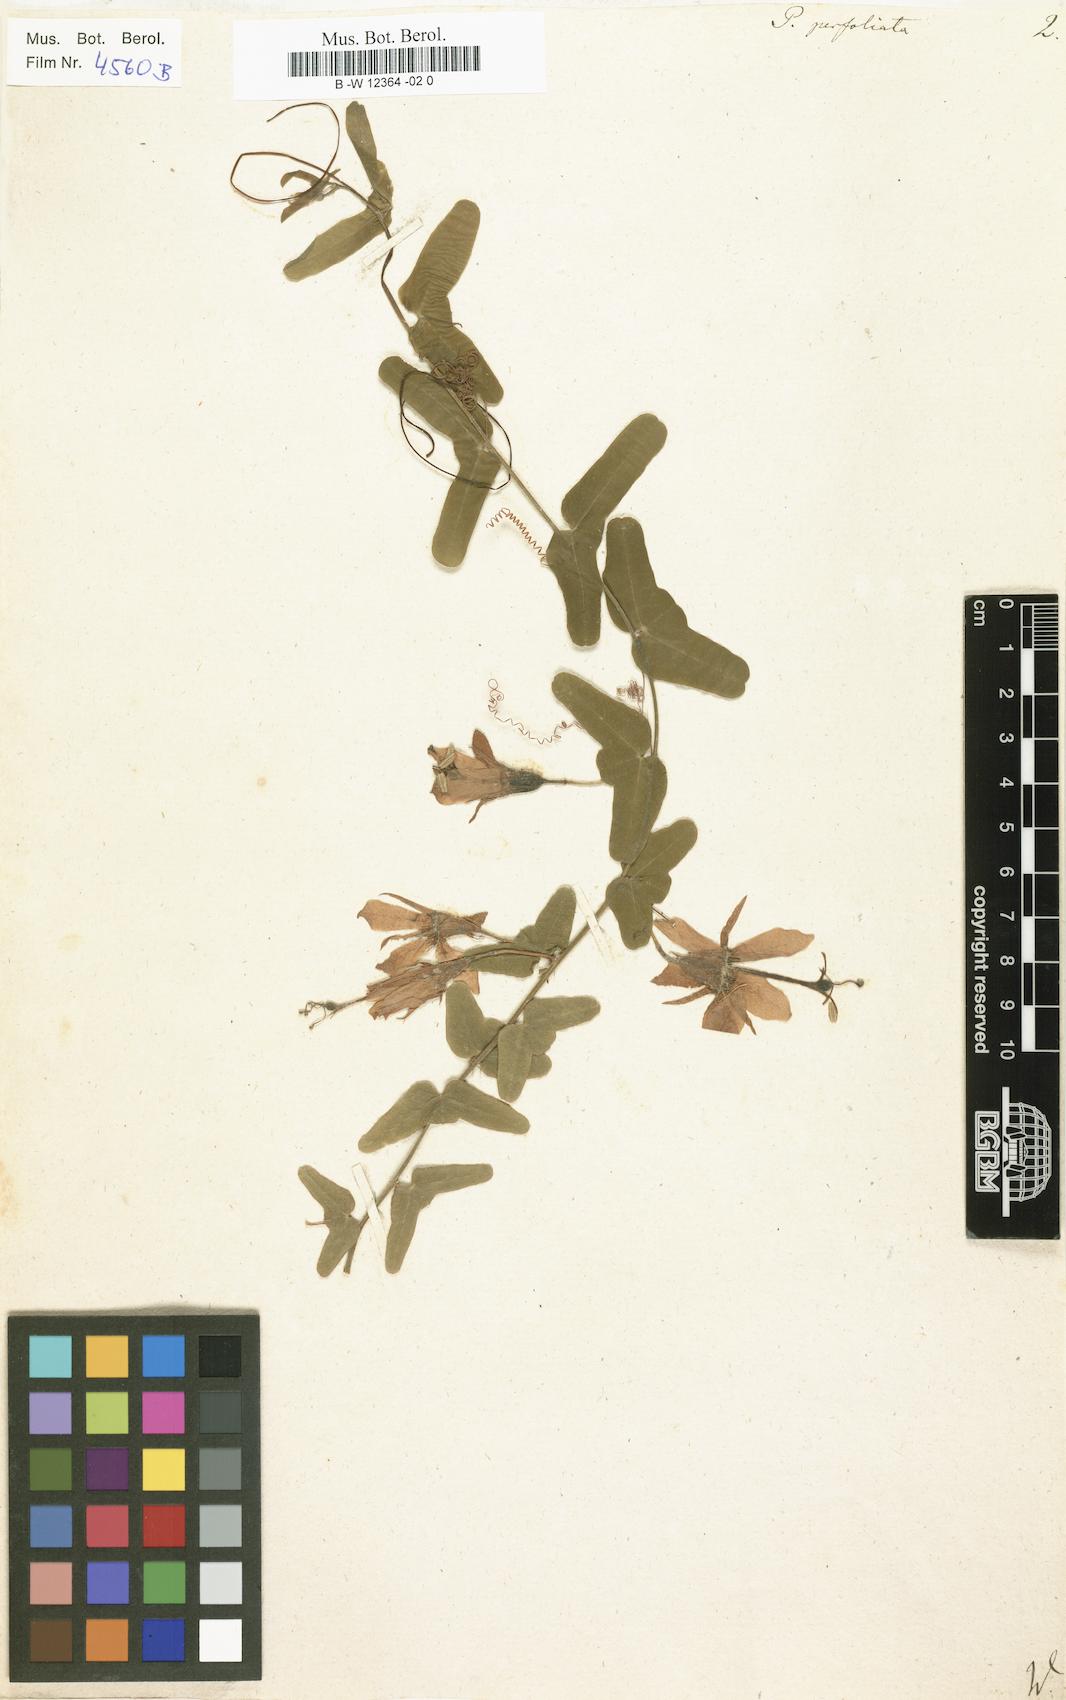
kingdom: Plantae
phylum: Tracheophyta
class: Magnoliopsida
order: Malpighiales
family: Passifloraceae
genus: Passiflora
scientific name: Passiflora perfoliata
